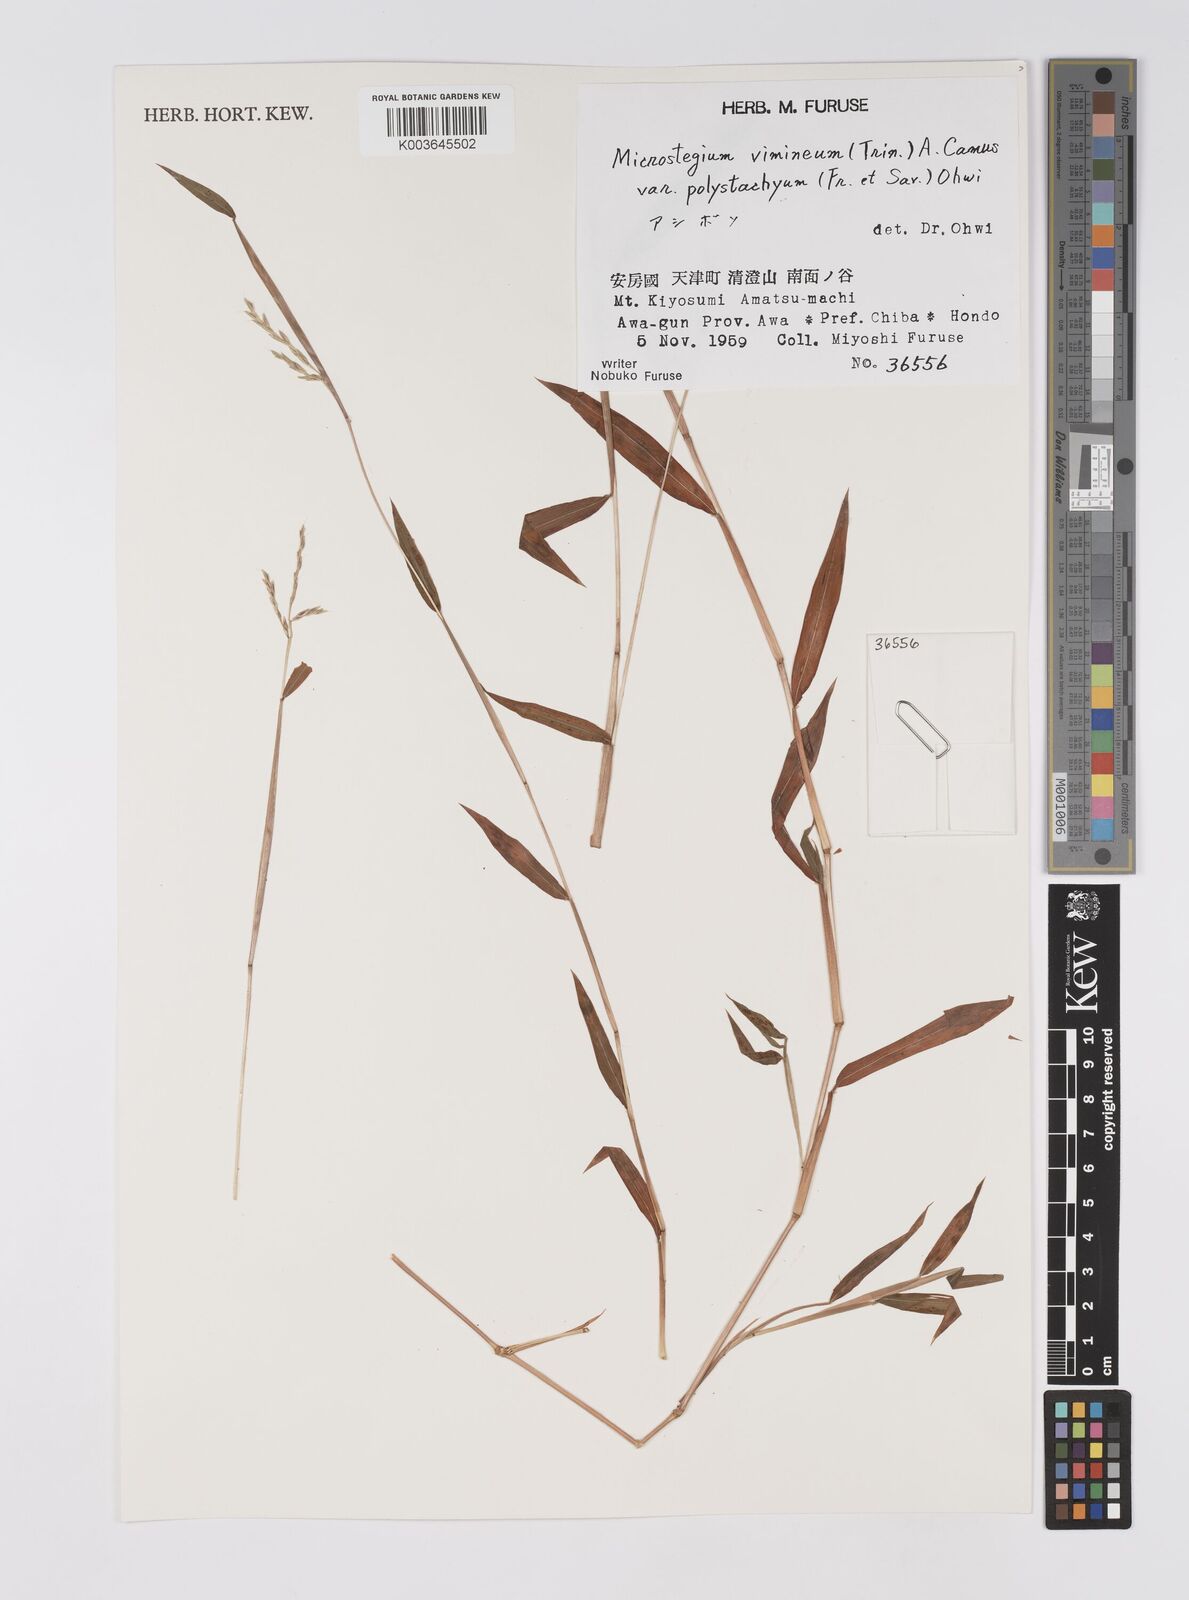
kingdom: Plantae
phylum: Tracheophyta
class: Liliopsida
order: Poales
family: Poaceae
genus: Microstegium
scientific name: Microstegium vimineum
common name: Japanese stiltgrass
